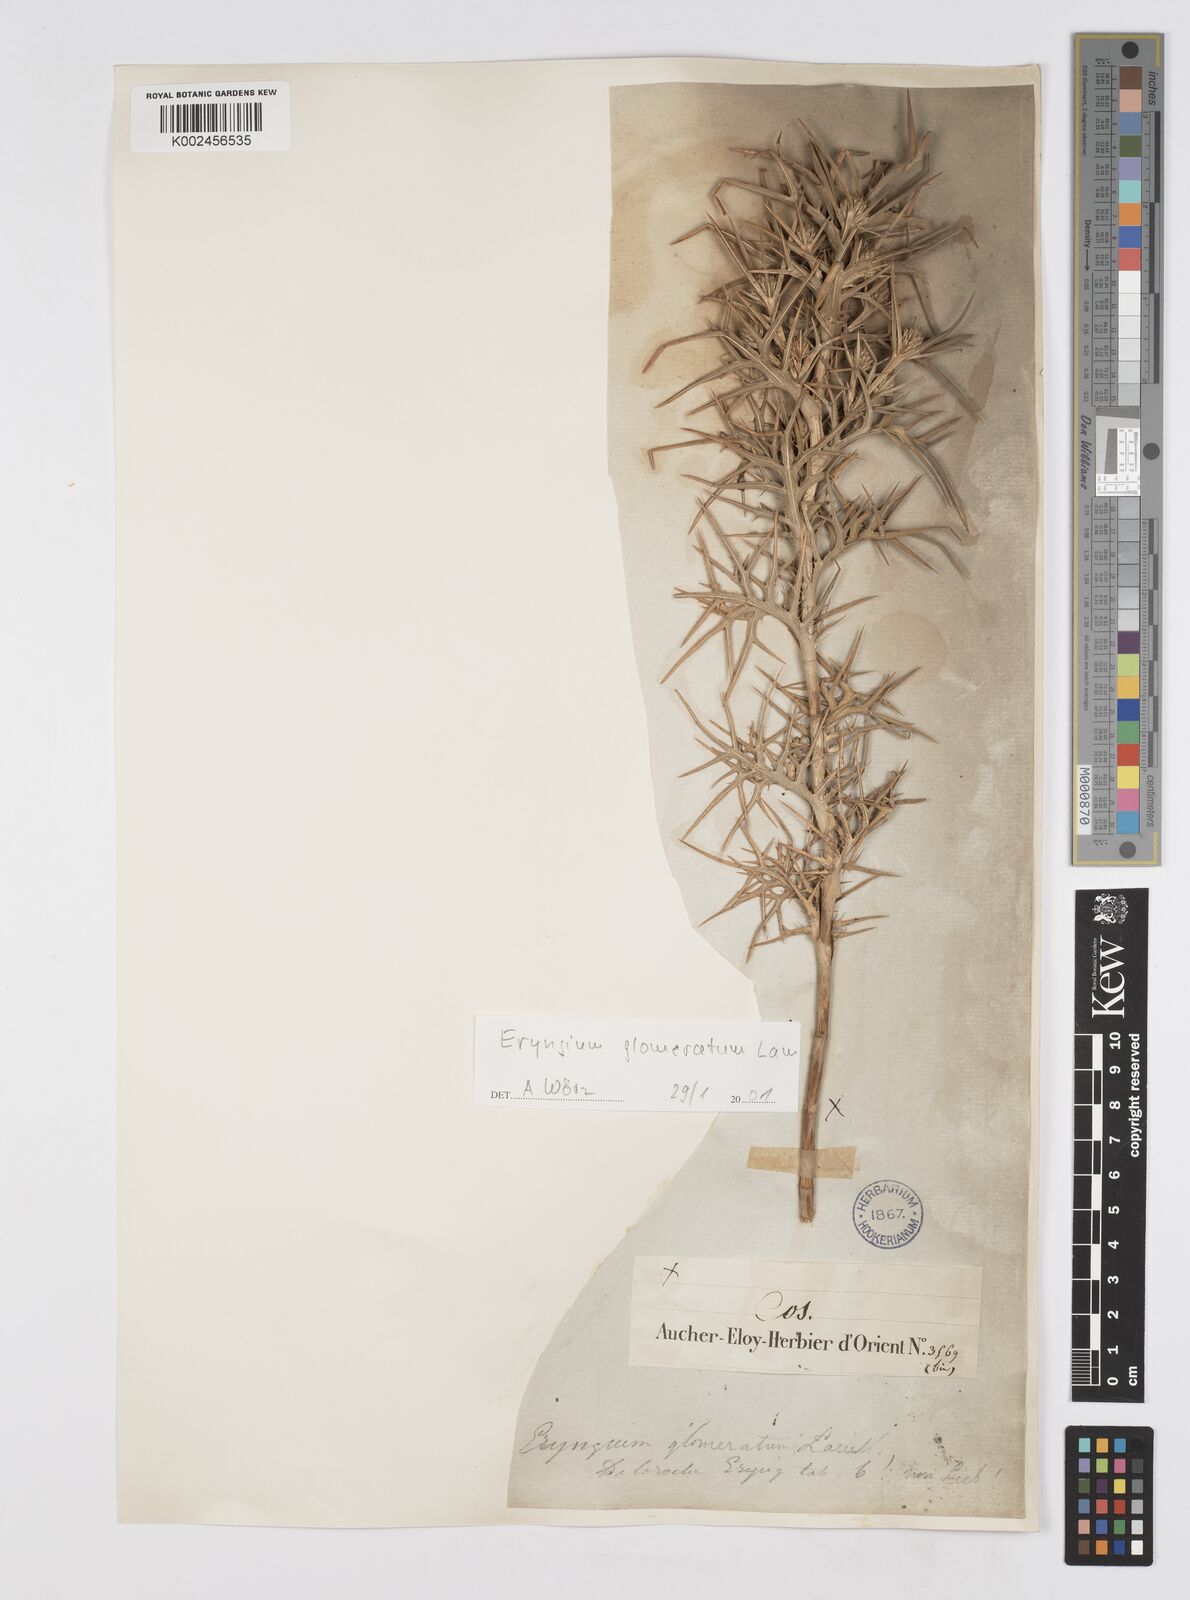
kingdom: Plantae
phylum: Tracheophyta
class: Magnoliopsida
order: Apiales
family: Apiaceae
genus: Eryngium
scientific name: Eryngium glomeratum
